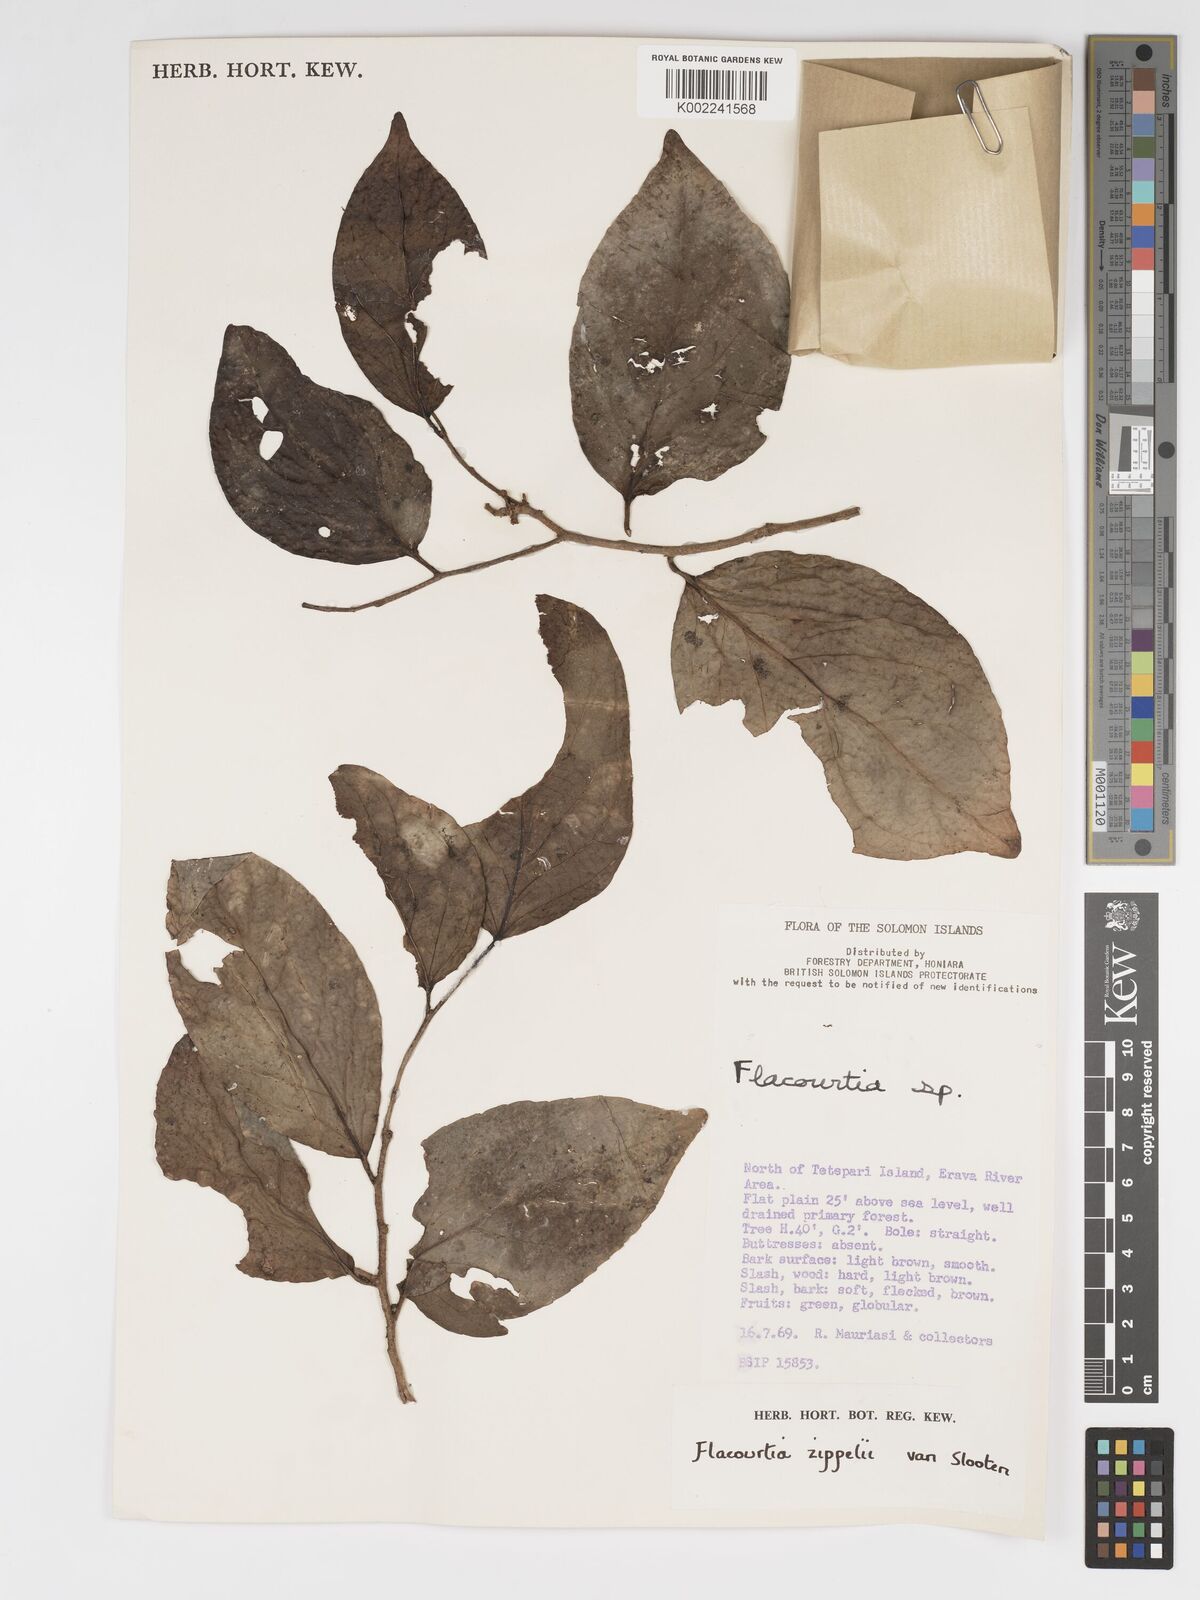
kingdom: Plantae
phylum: Tracheophyta
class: Magnoliopsida
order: Malpighiales
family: Salicaceae
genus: Flacourtia
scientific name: Flacourtia zippelii
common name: Zippeli plum
